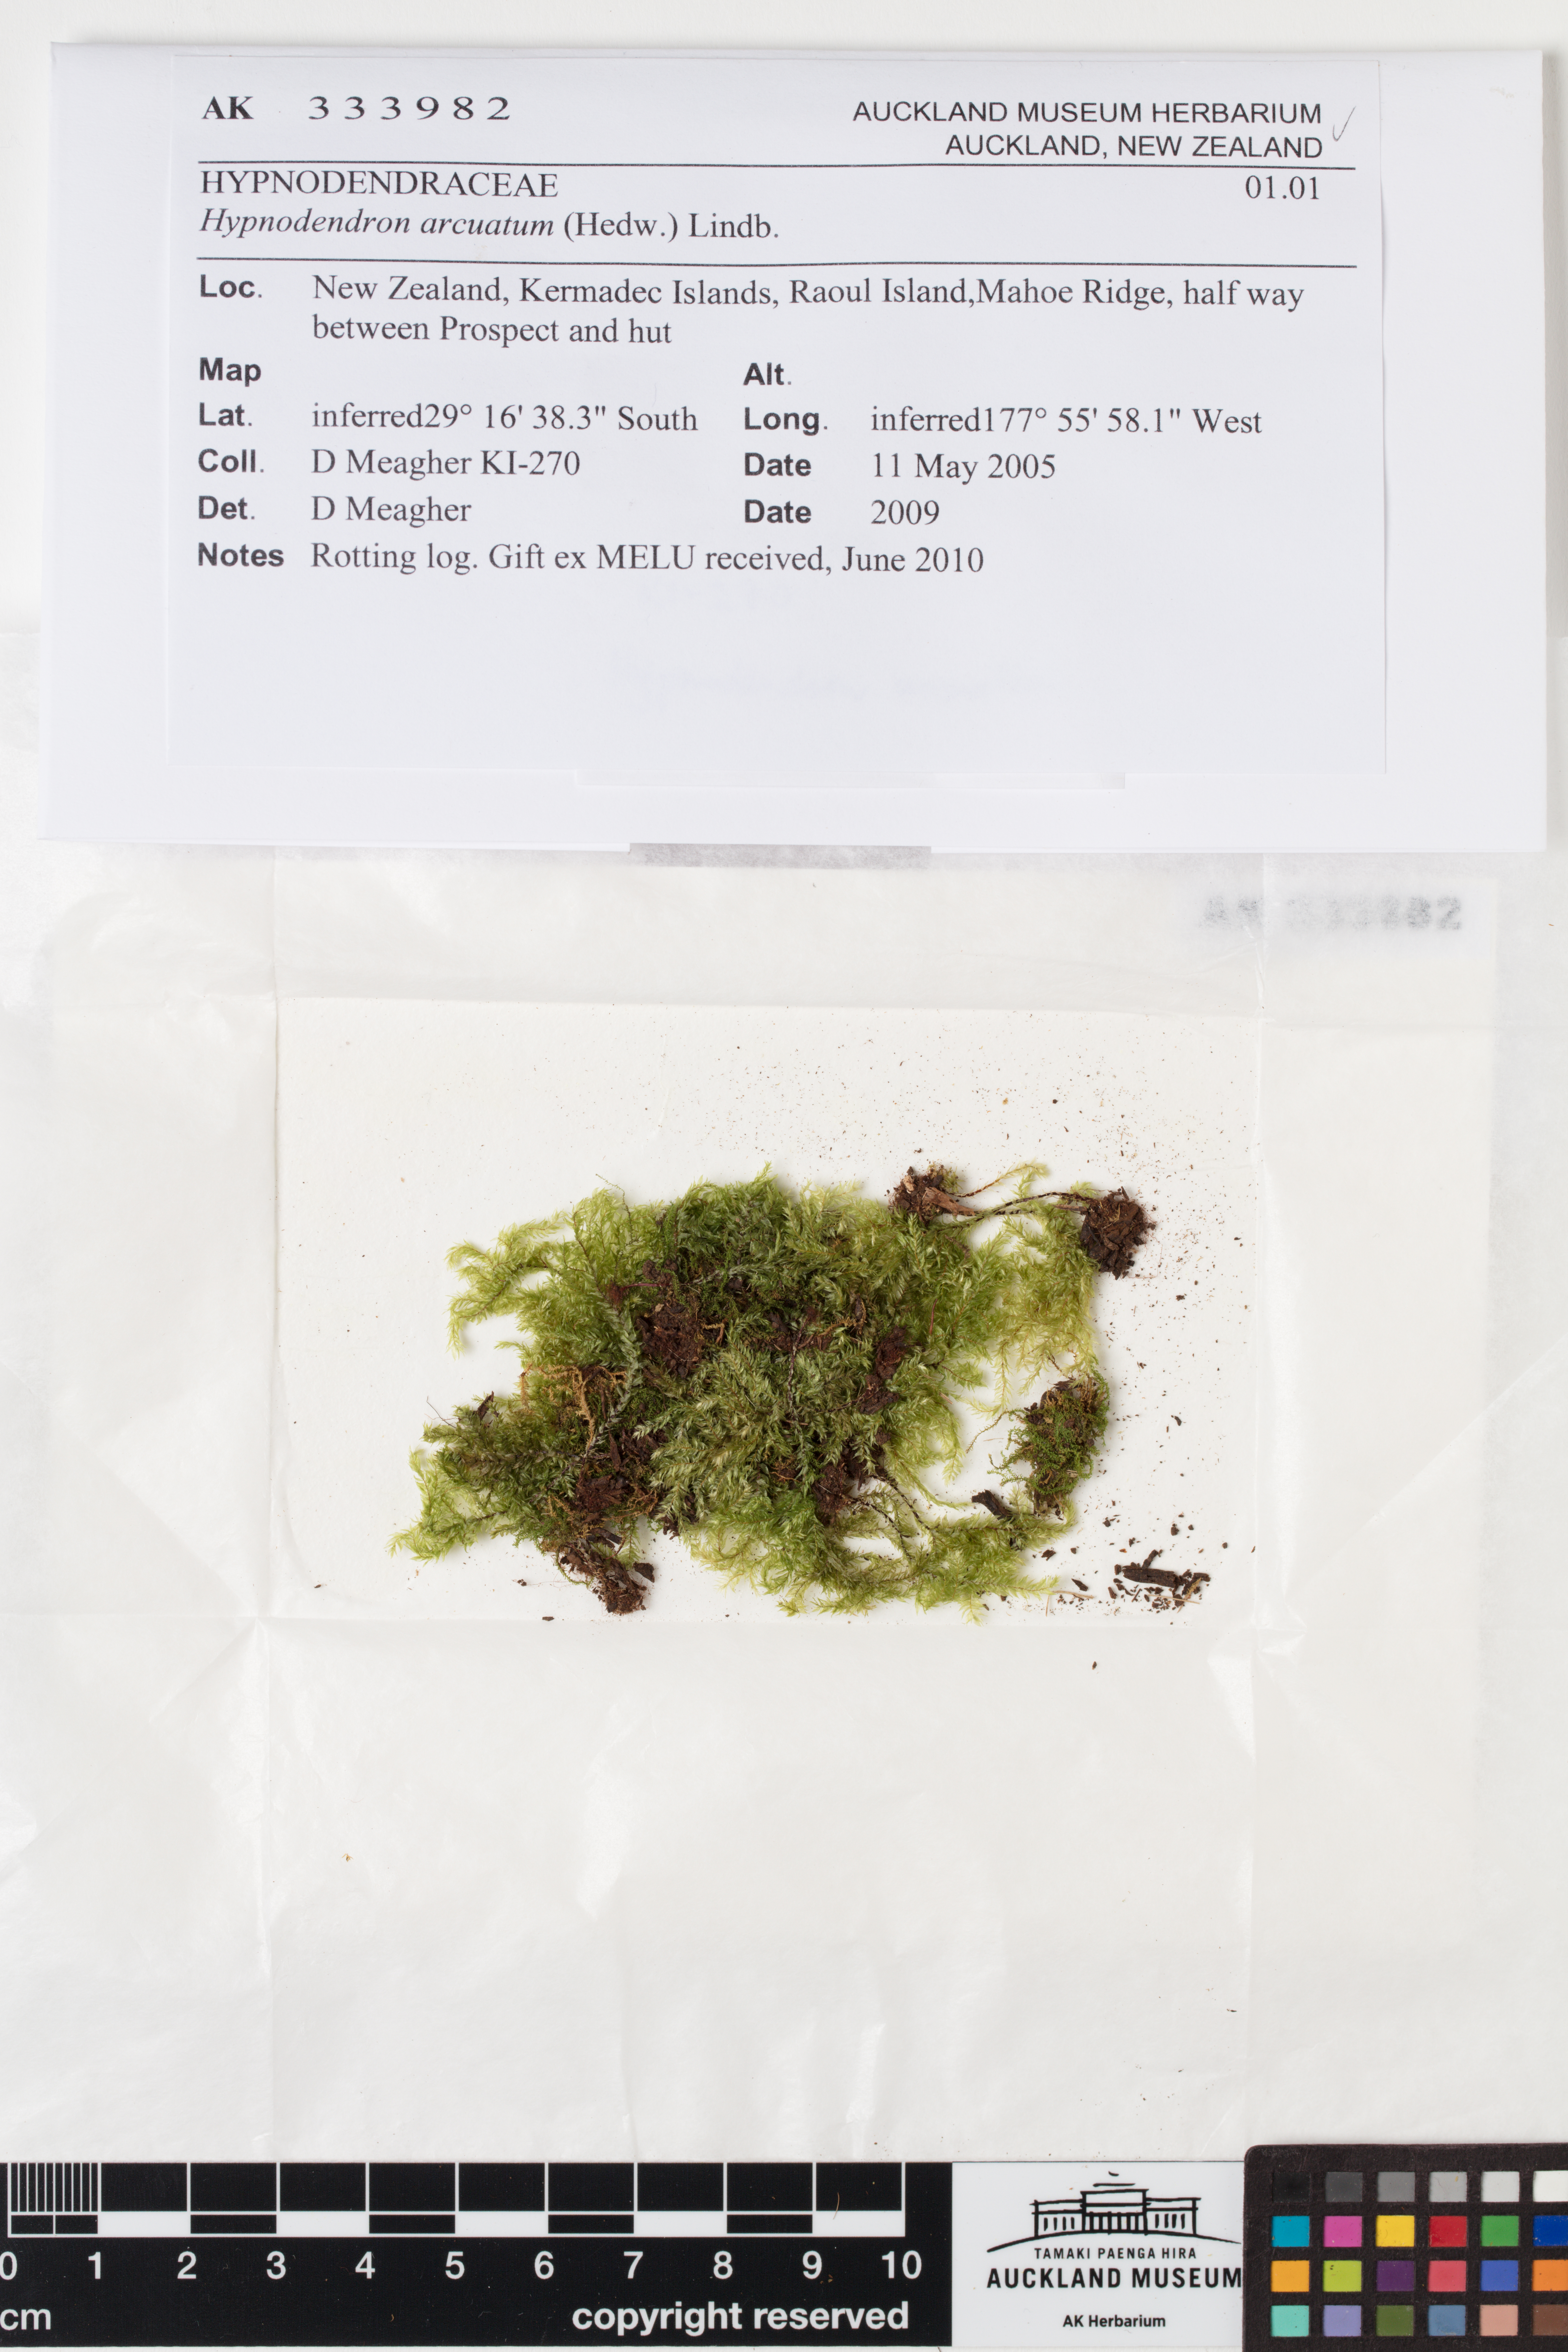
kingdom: Plantae
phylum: Bryophyta
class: Bryopsida
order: Hypnodendrales
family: Spiridentaceae
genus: Hypnodendron
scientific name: Hypnodendron arcuatum
